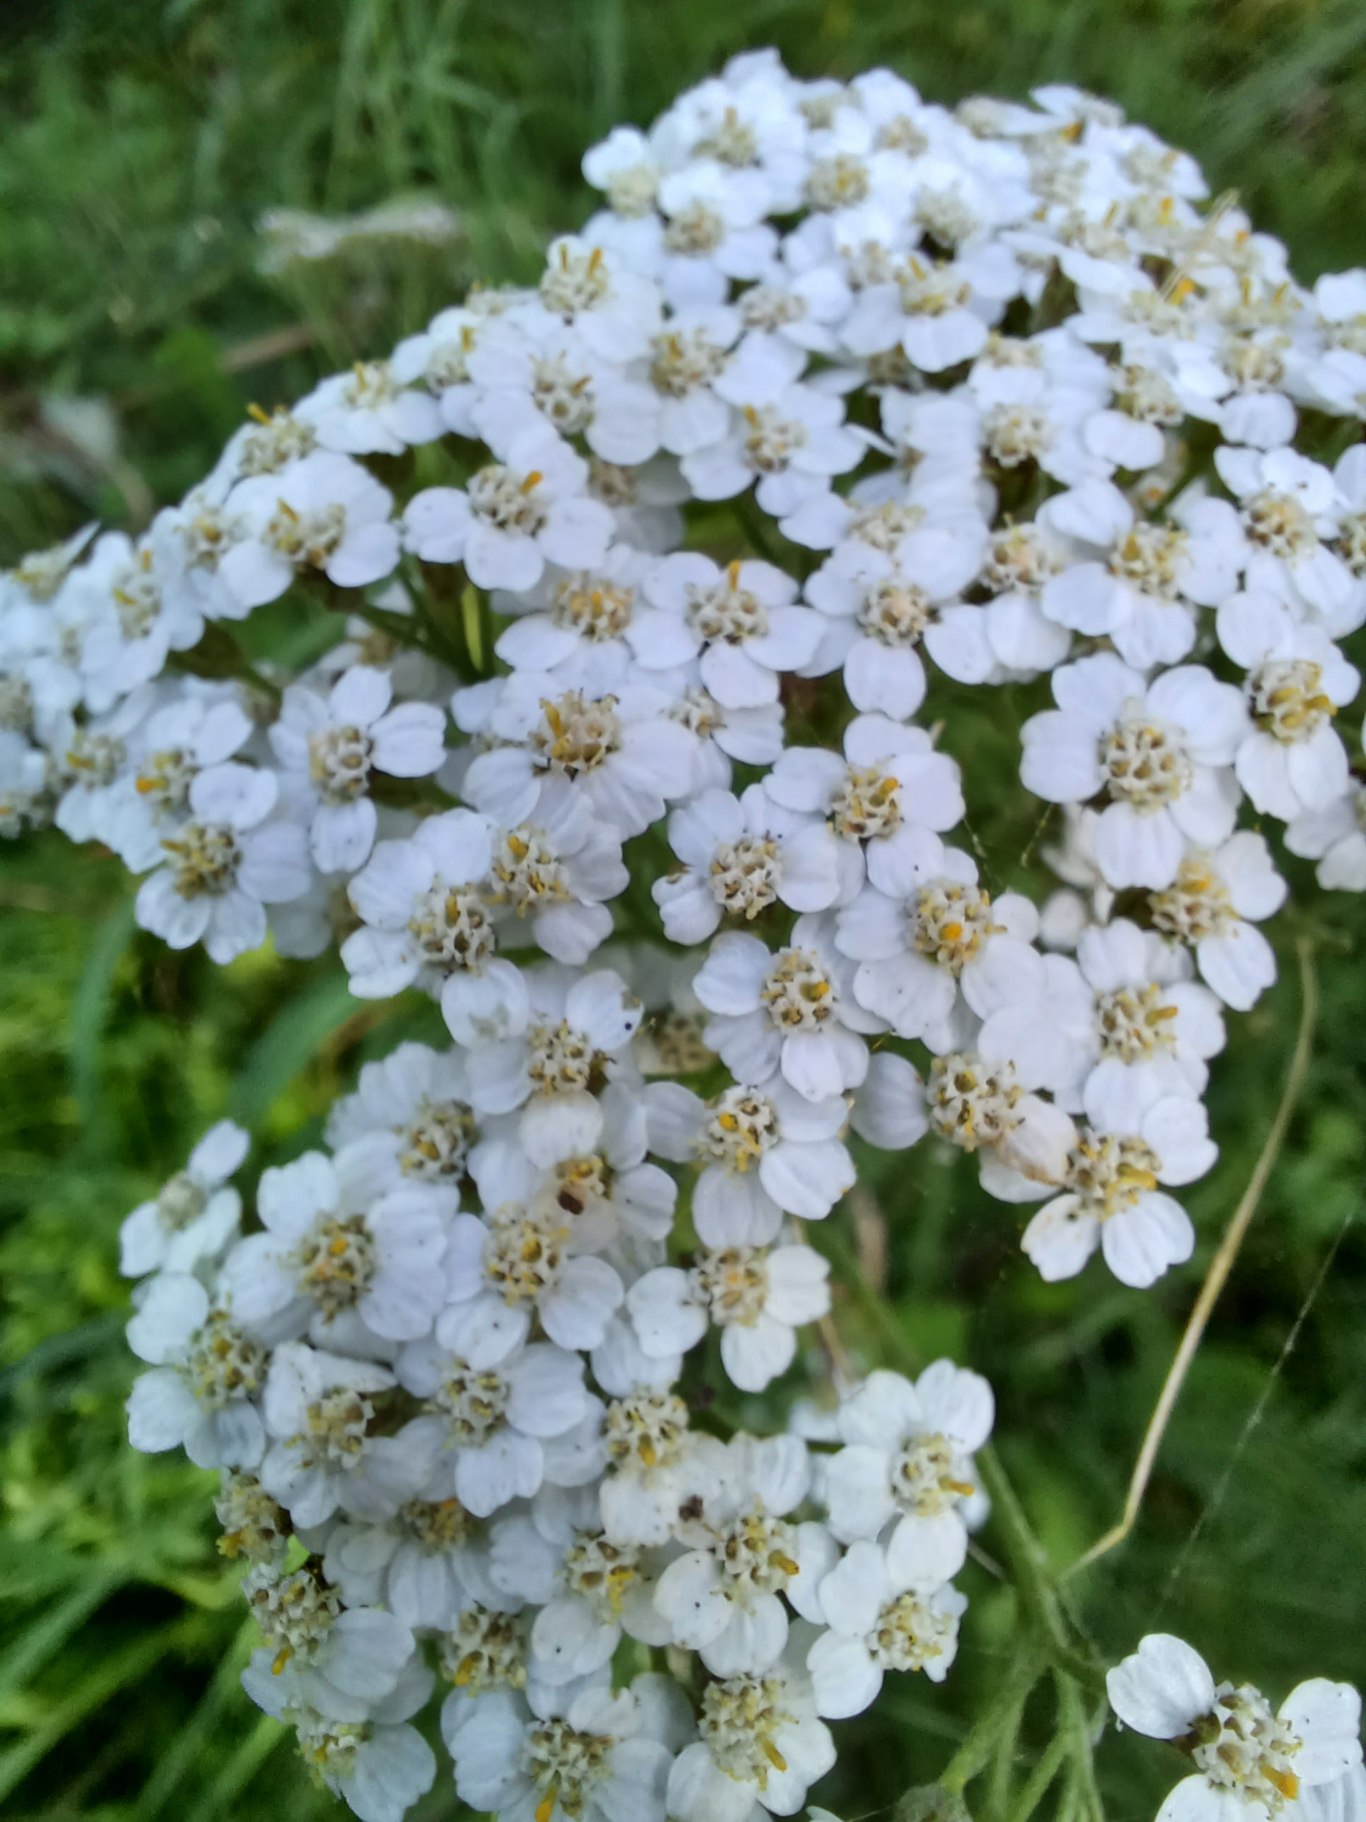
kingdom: Plantae
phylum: Tracheophyta
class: Magnoliopsida
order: Asterales
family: Asteraceae
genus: Achillea
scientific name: Achillea millefolium
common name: Almindelig røllike
